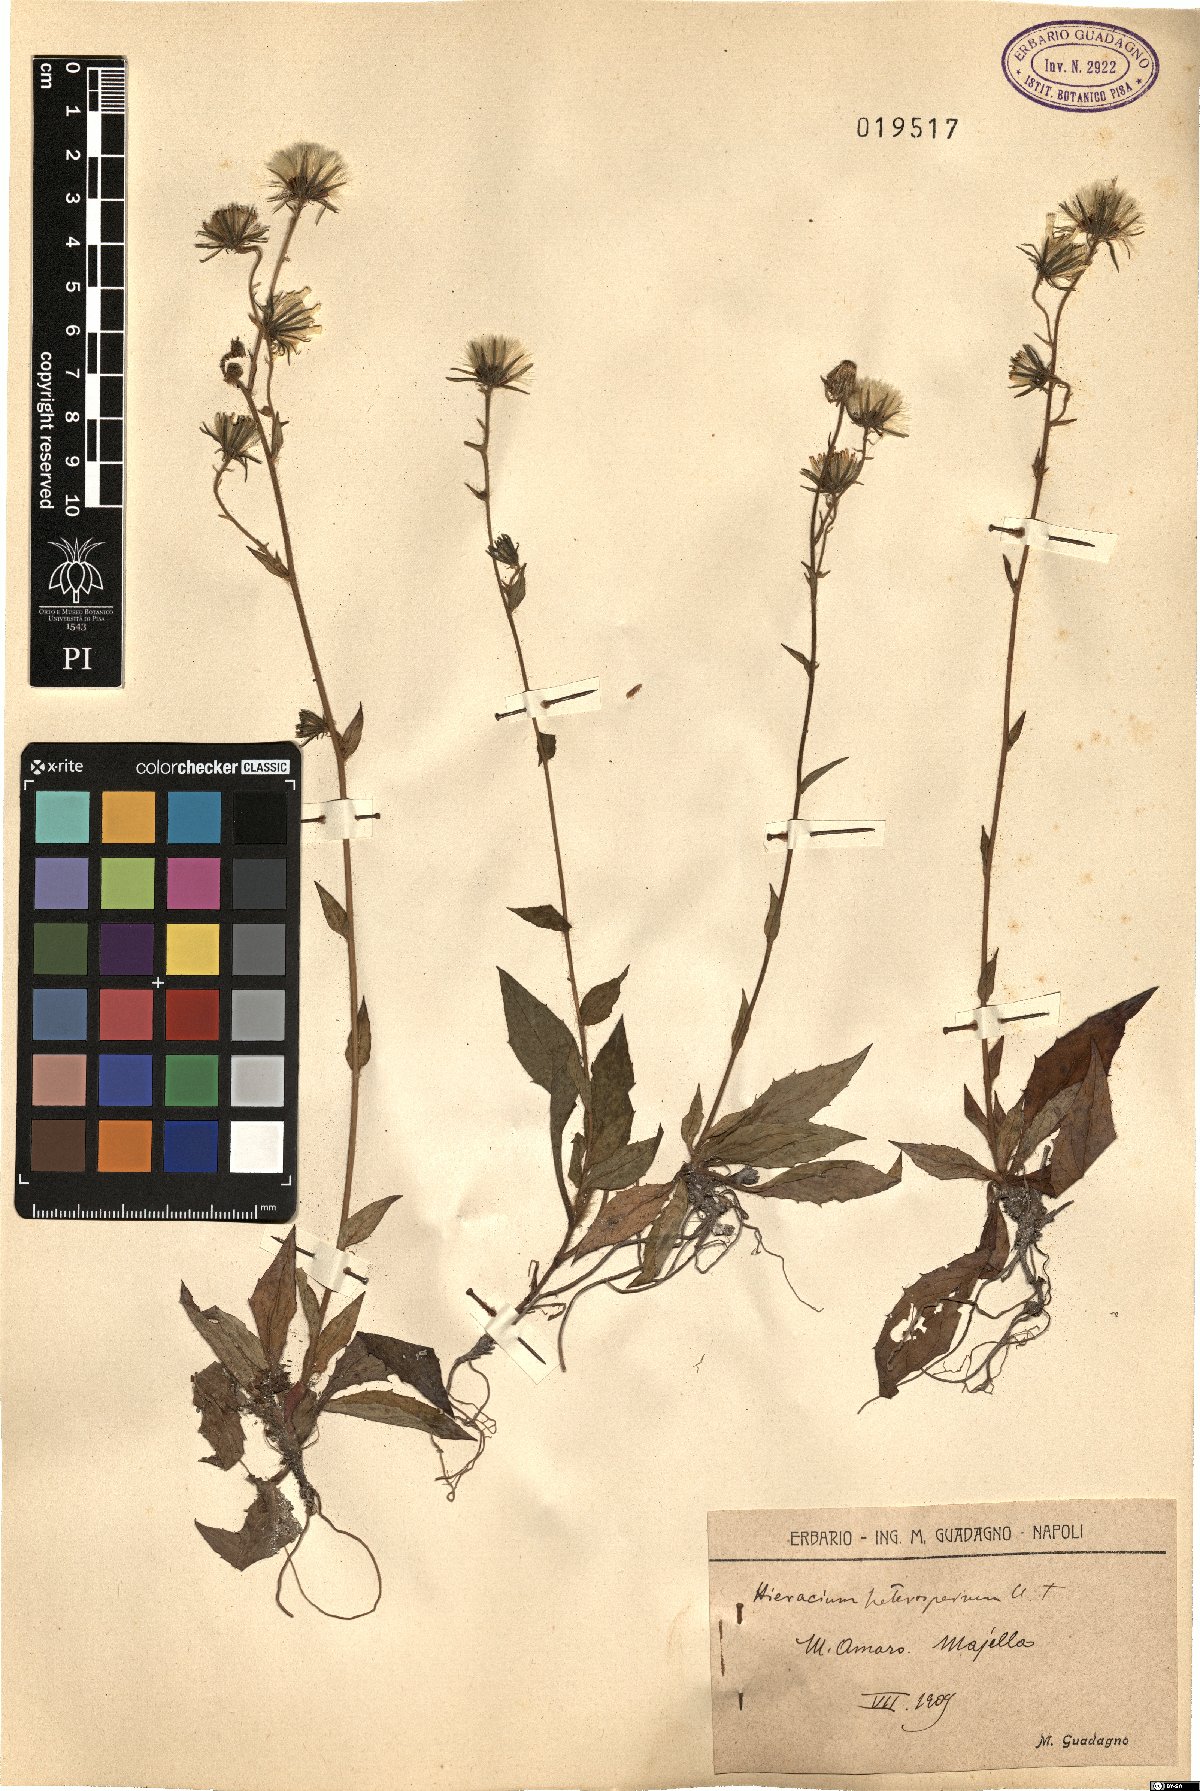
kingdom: Plantae
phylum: Tracheophyta
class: Magnoliopsida
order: Asterales
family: Asteraceae
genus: Hieracium
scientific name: Hieracium racemosum
